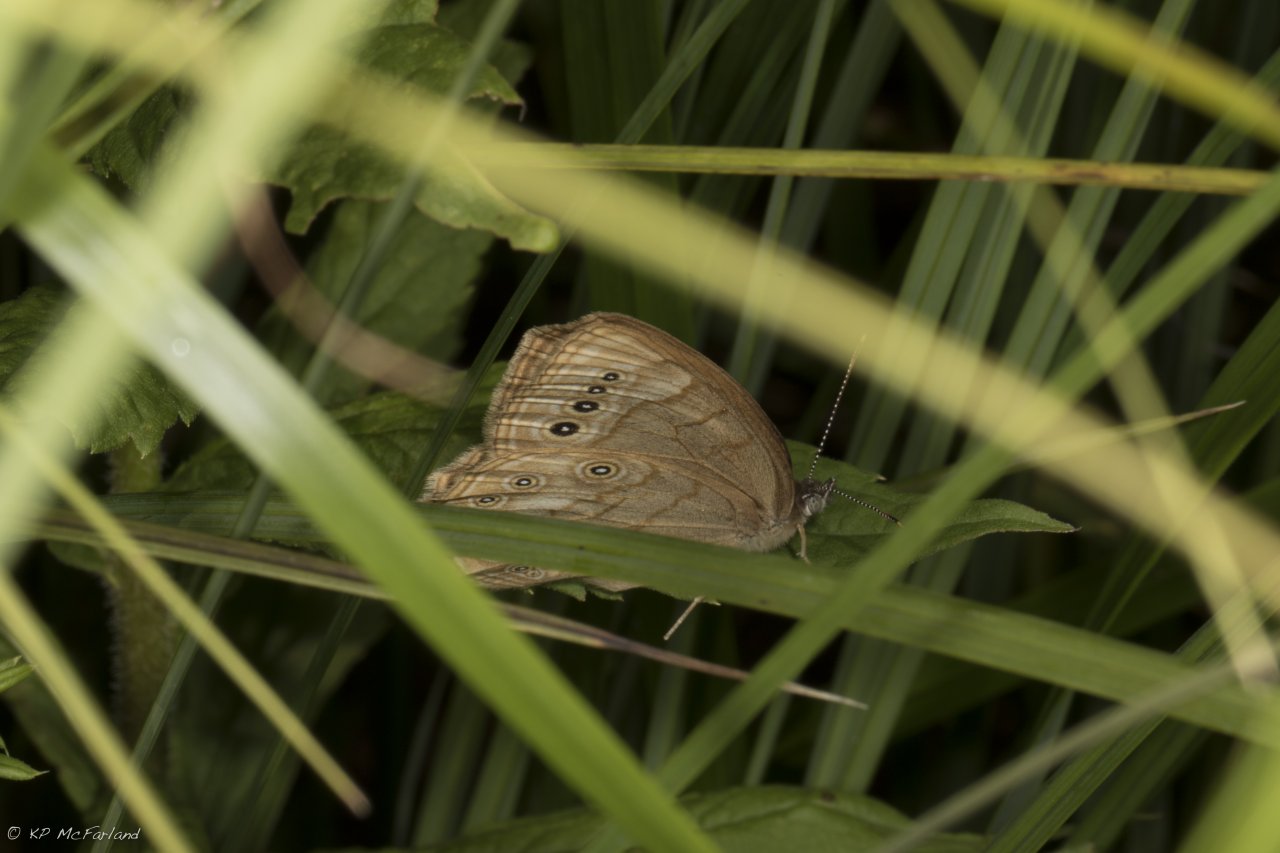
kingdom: Animalia
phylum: Arthropoda
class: Insecta
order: Lepidoptera
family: Nymphalidae
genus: Lethe
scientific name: Lethe eurydice
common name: Eyed Brown
